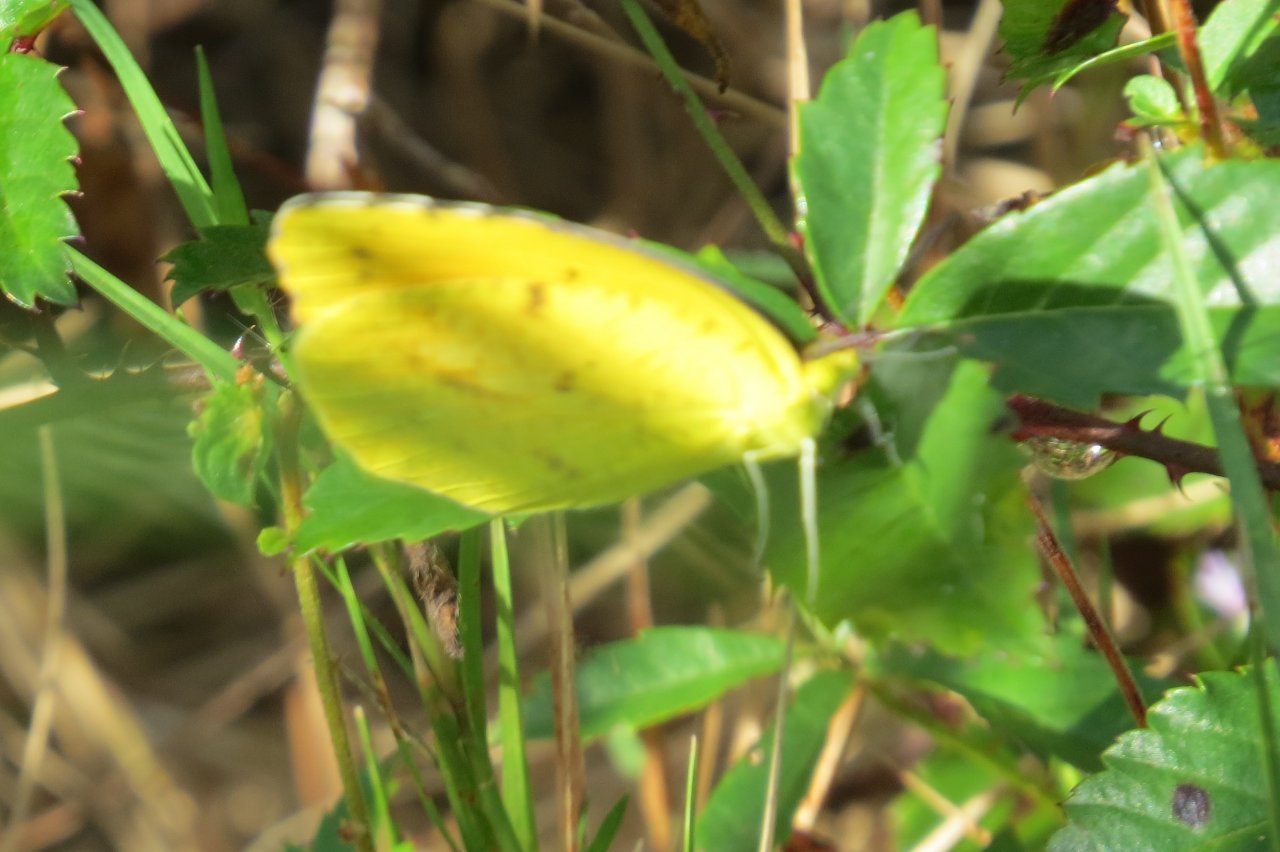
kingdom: Animalia
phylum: Arthropoda
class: Insecta
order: Lepidoptera
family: Pieridae
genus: Abaeis
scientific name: Abaeis nicippe
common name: Sleepy Orange
